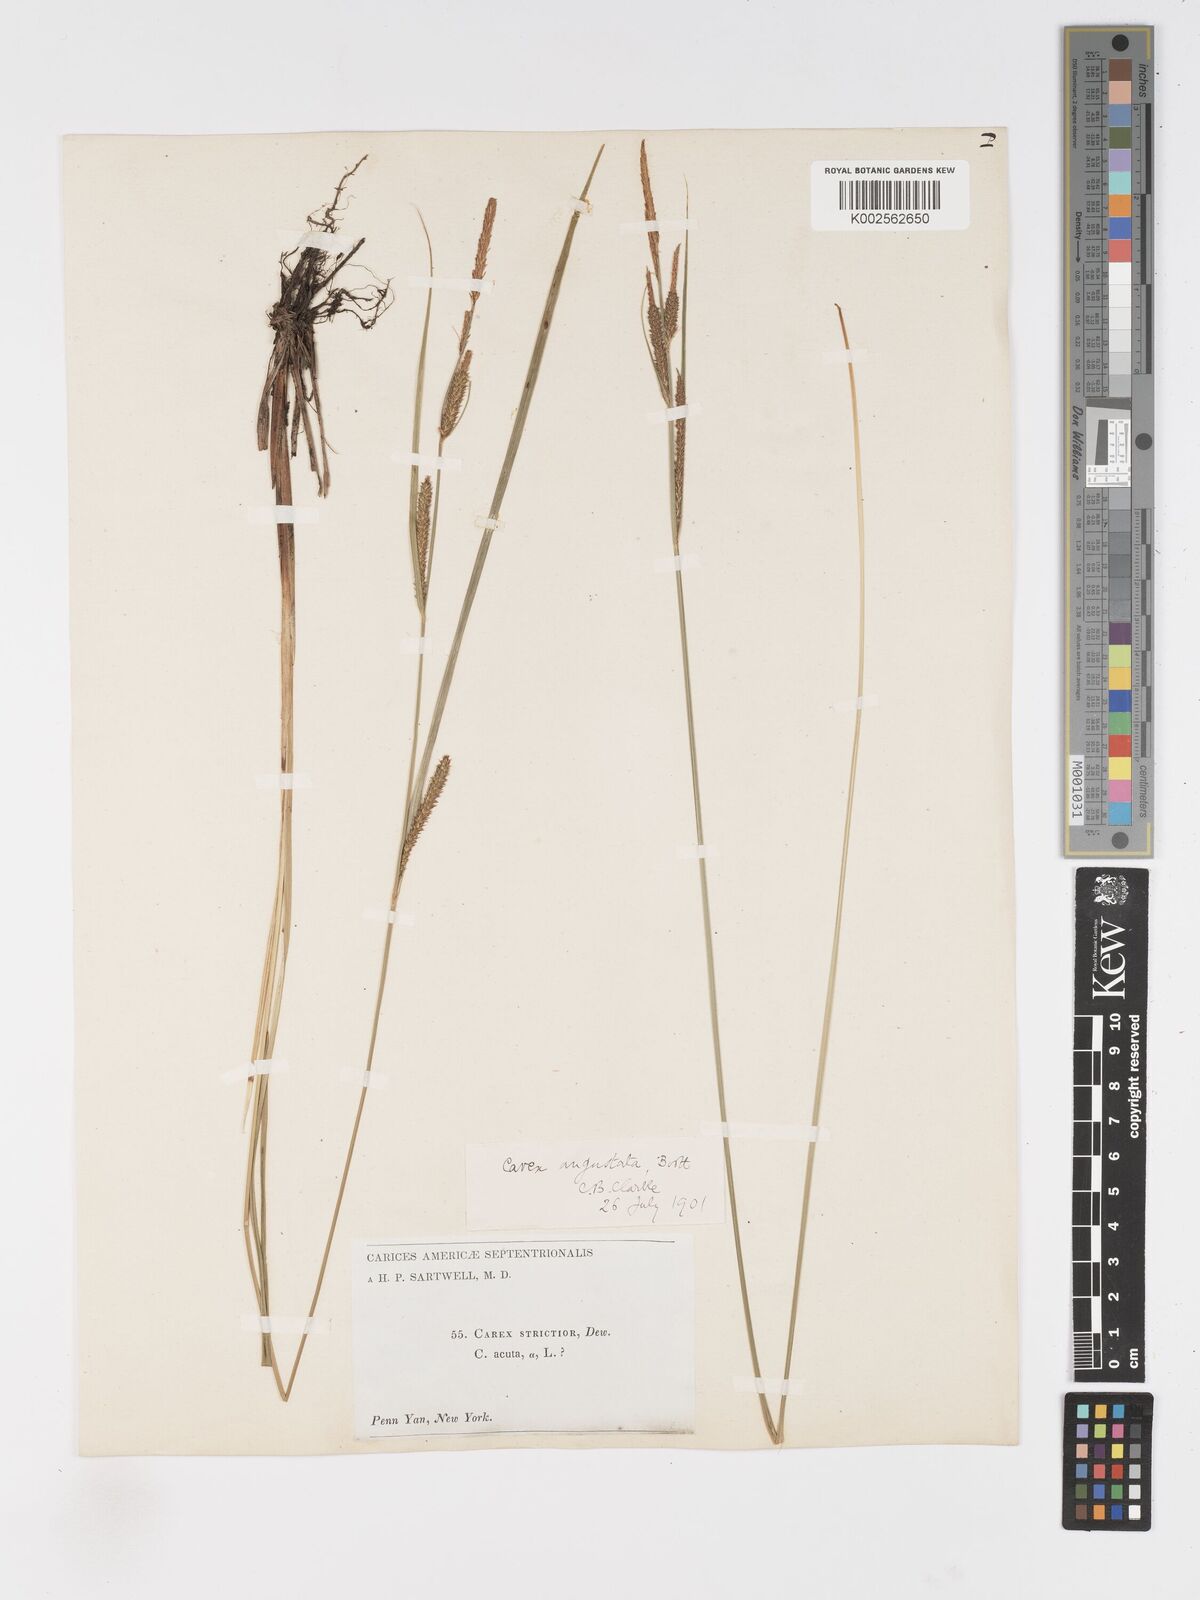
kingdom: Plantae
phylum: Tracheophyta
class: Liliopsida
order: Poales
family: Cyperaceae
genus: Carex
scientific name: Carex stricta
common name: Hummock sedge
